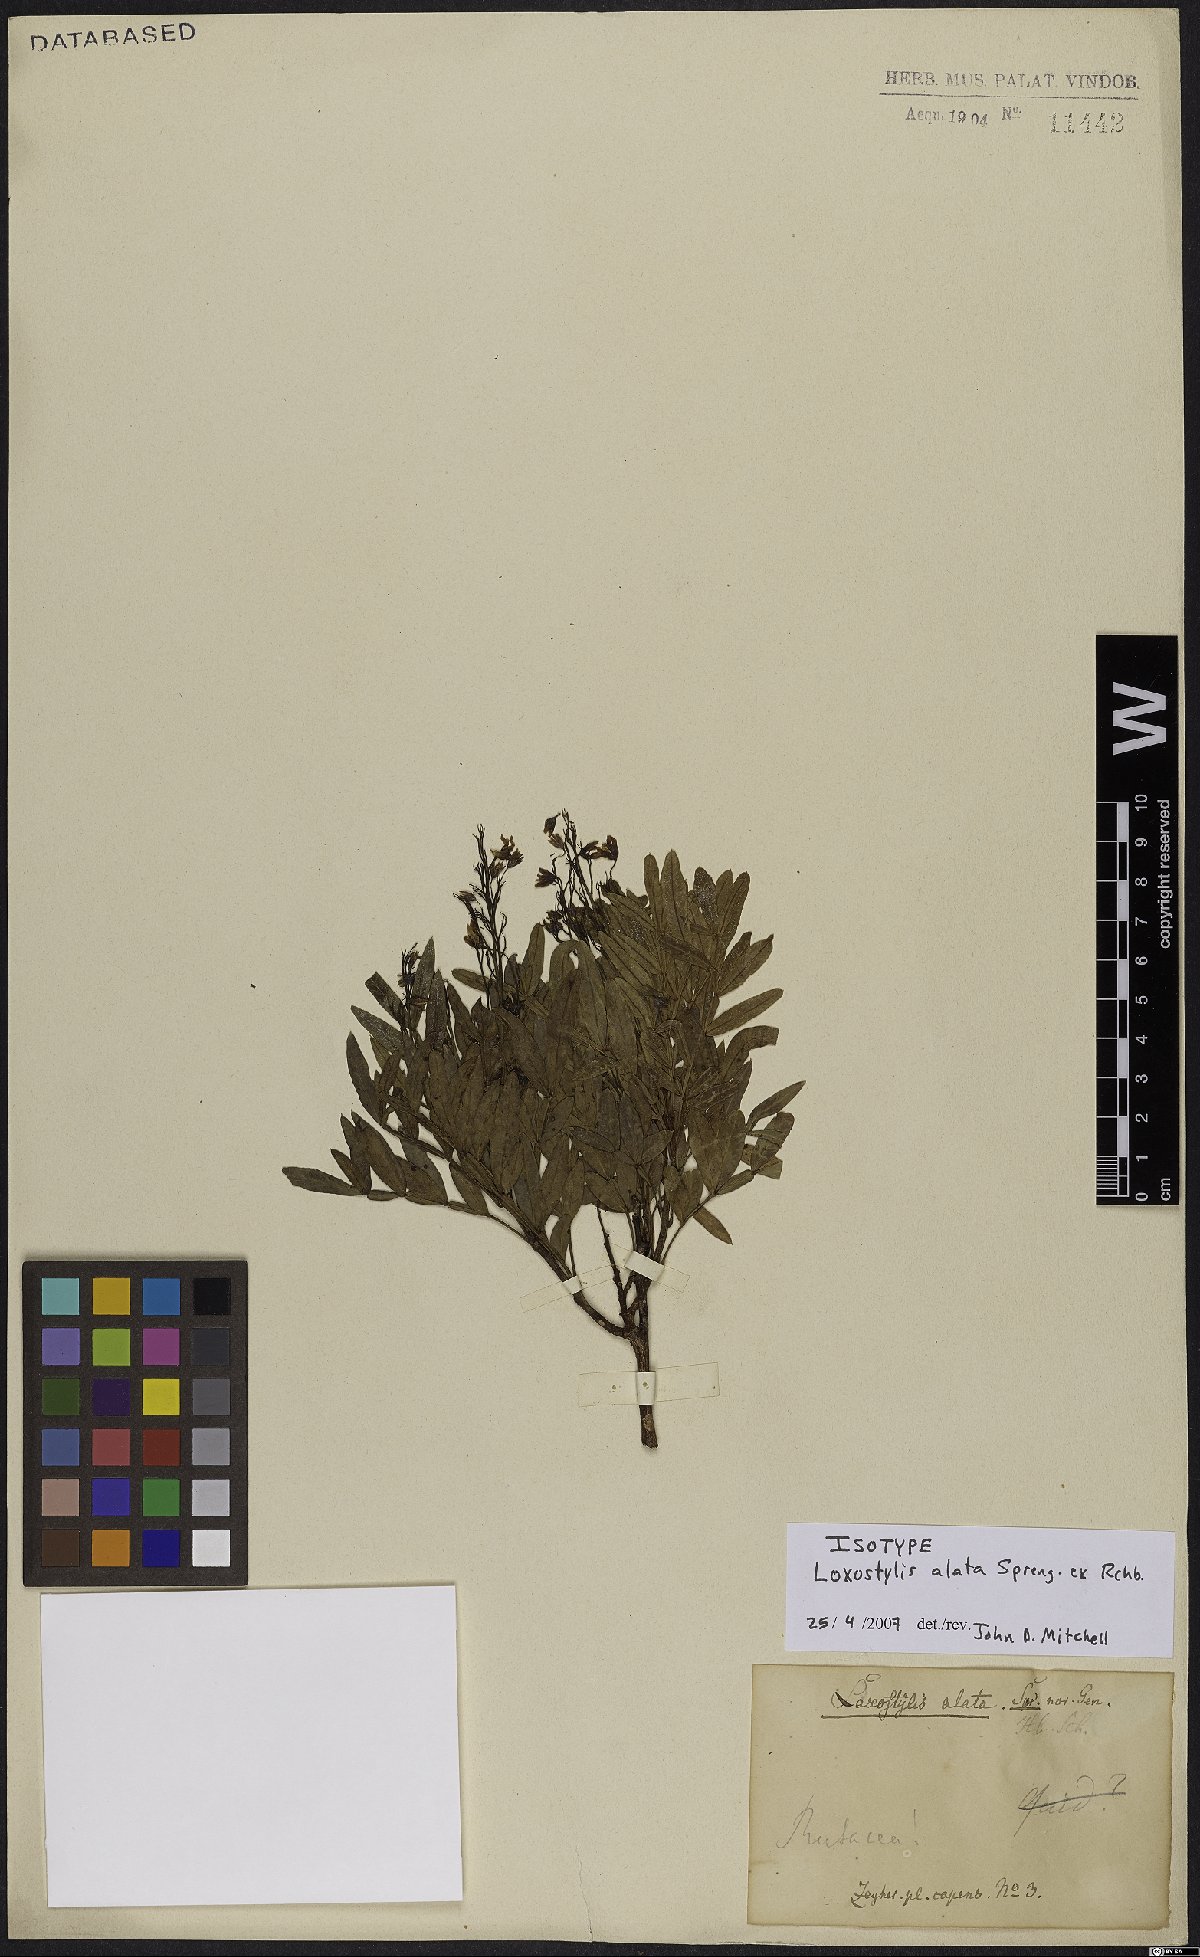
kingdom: Plantae
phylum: Tracheophyta
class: Magnoliopsida
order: Sapindales
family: Anacardiaceae
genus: Loxostylis
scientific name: Loxostylis alata
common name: Wild peppertree
